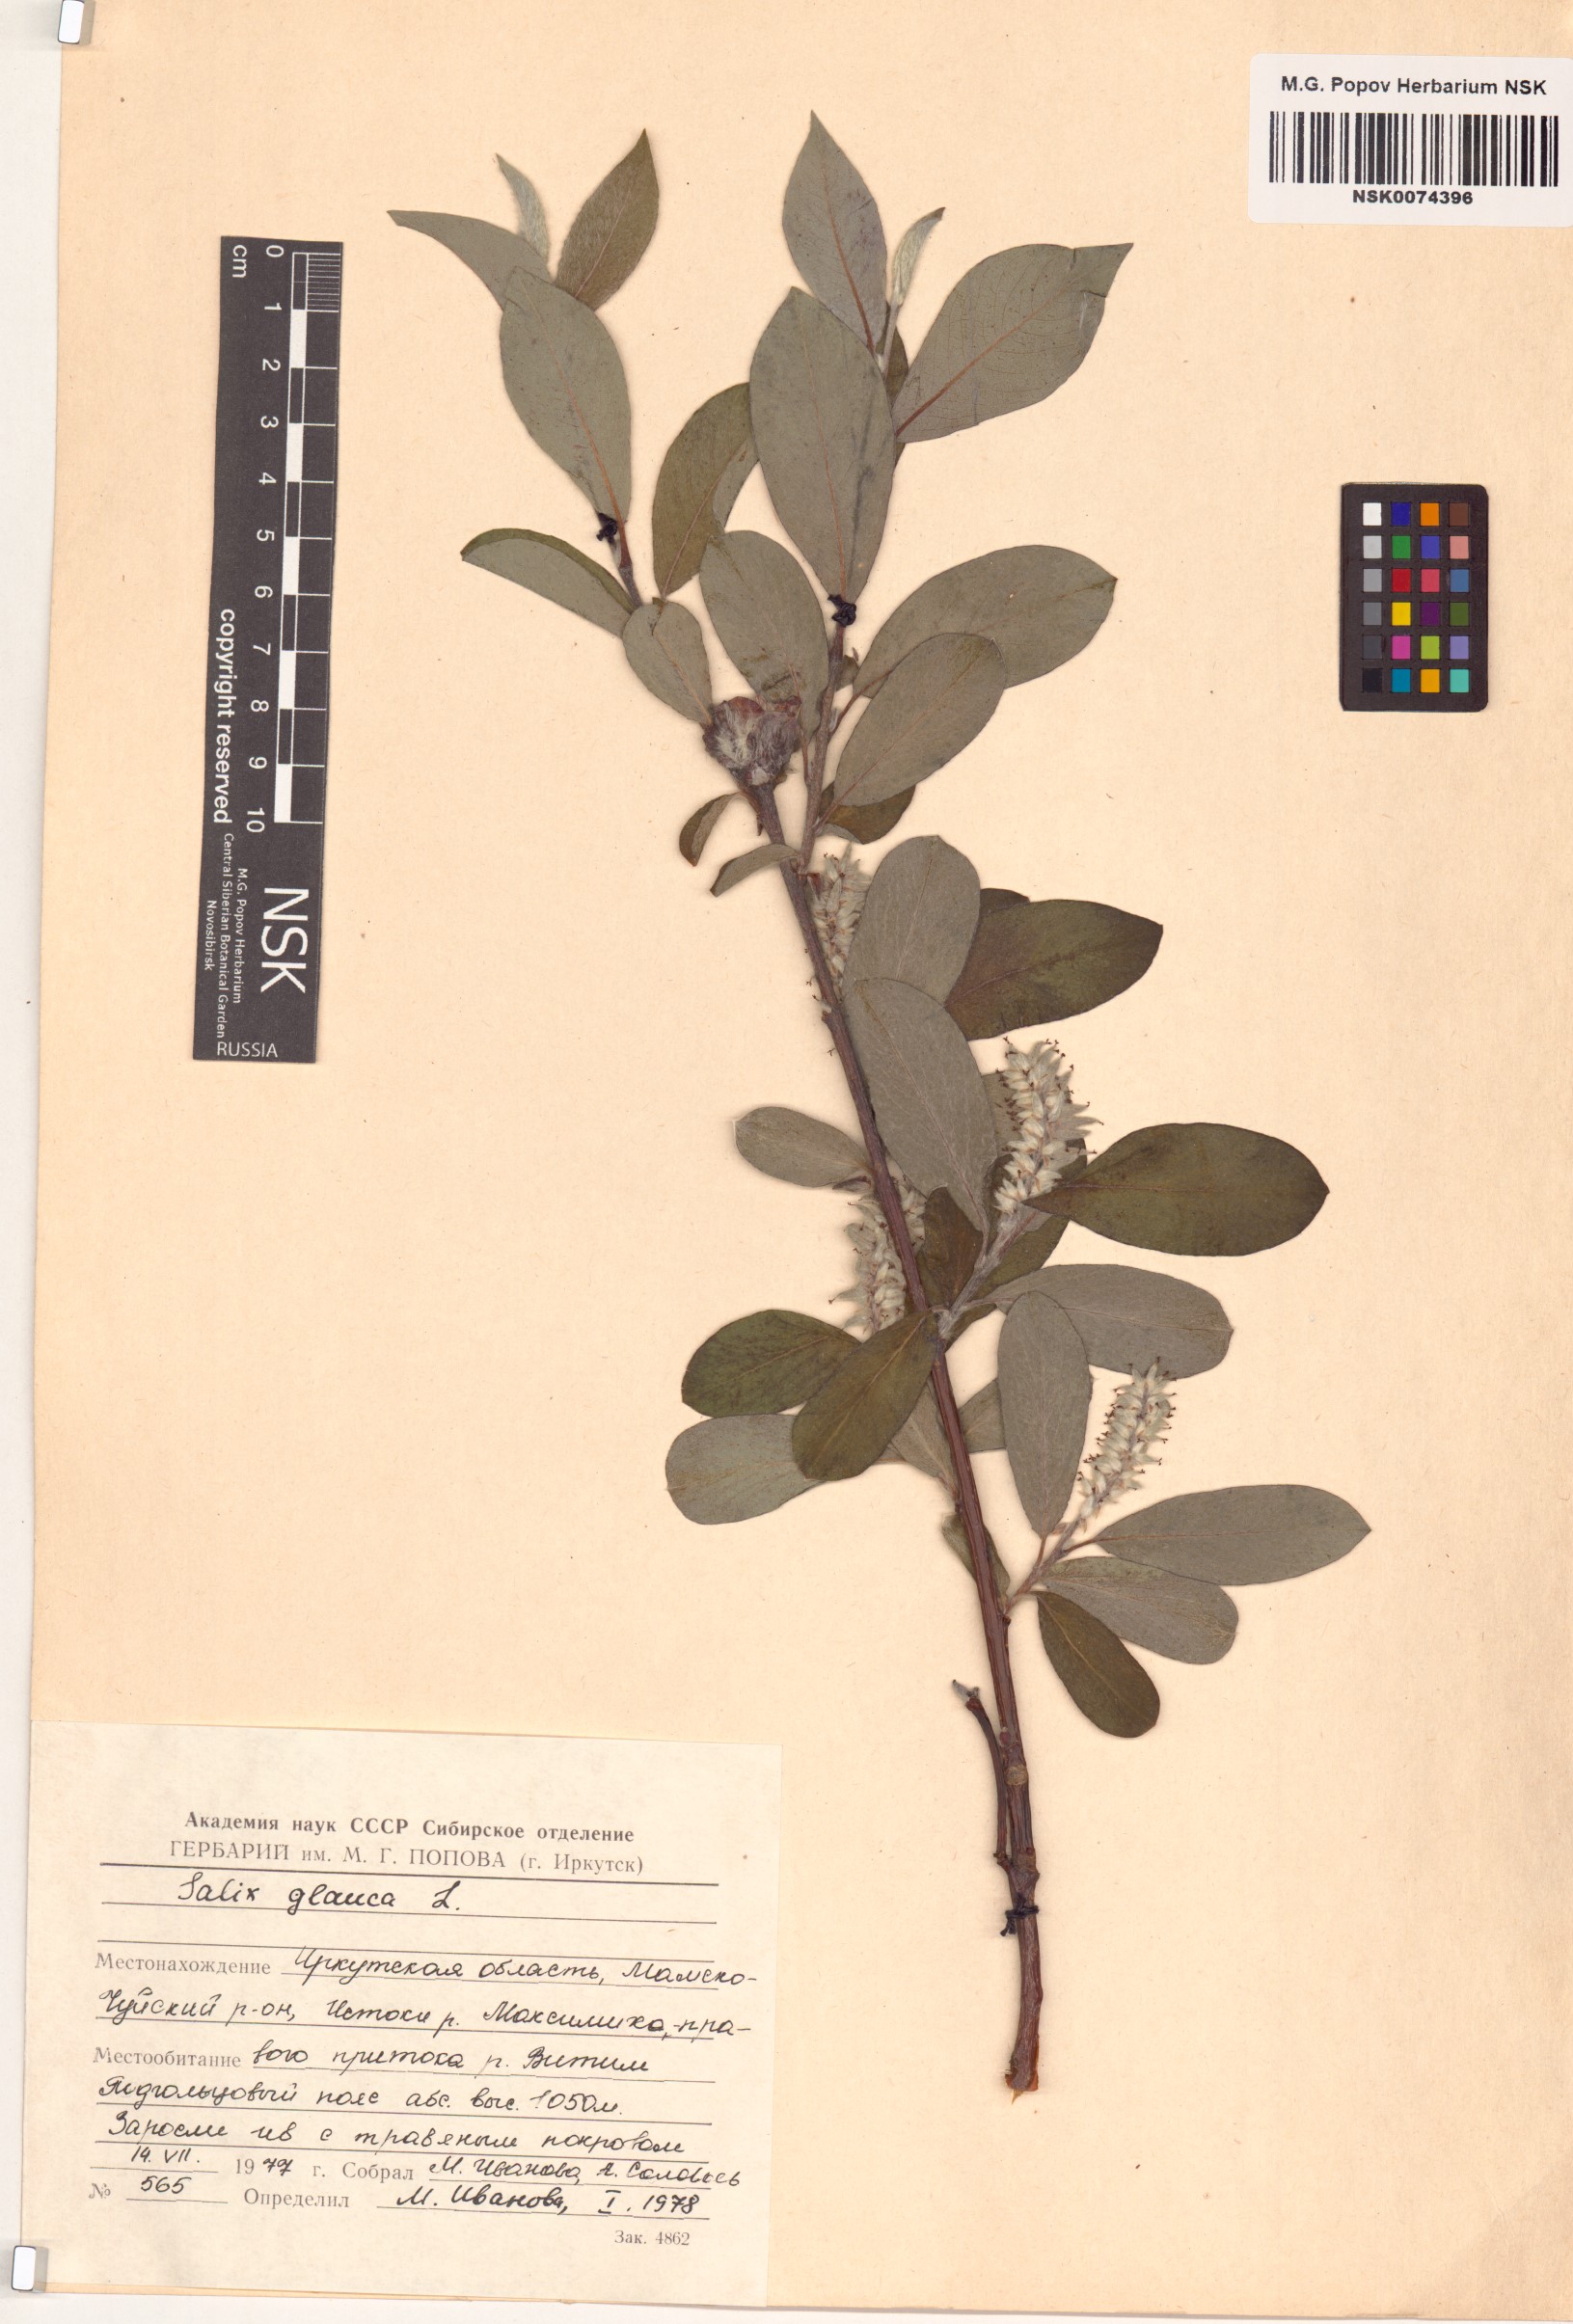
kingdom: Plantae
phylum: Tracheophyta
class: Magnoliopsida
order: Malpighiales
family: Salicaceae
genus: Salix
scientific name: Salix glauca
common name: Glaucous willow
